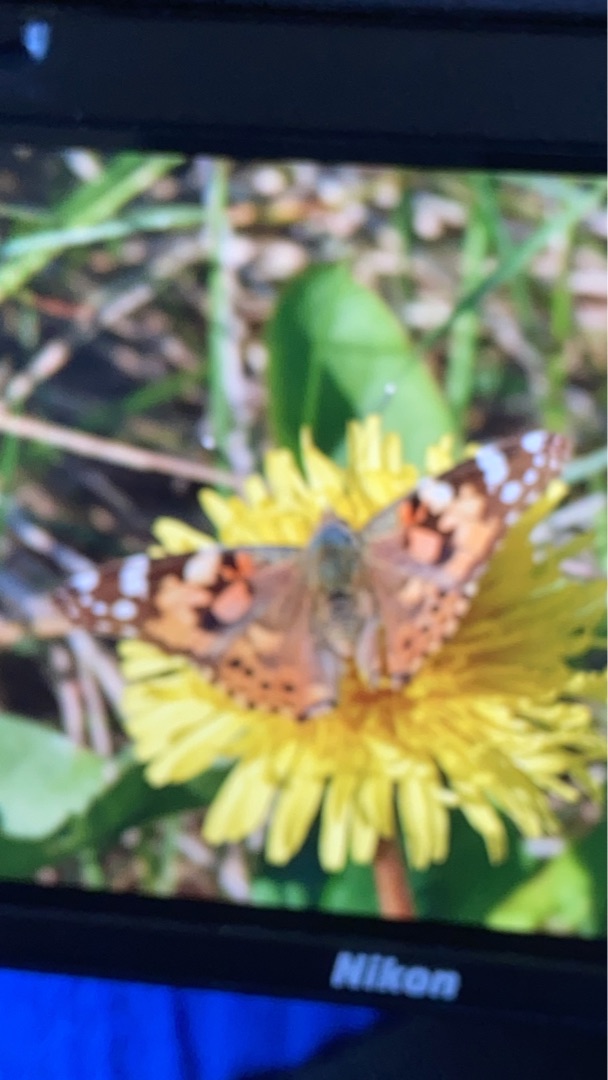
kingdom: Animalia
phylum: Arthropoda
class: Insecta
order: Lepidoptera
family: Nymphalidae
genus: Vanessa
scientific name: Vanessa cardui
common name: Tidselsommerfugl
